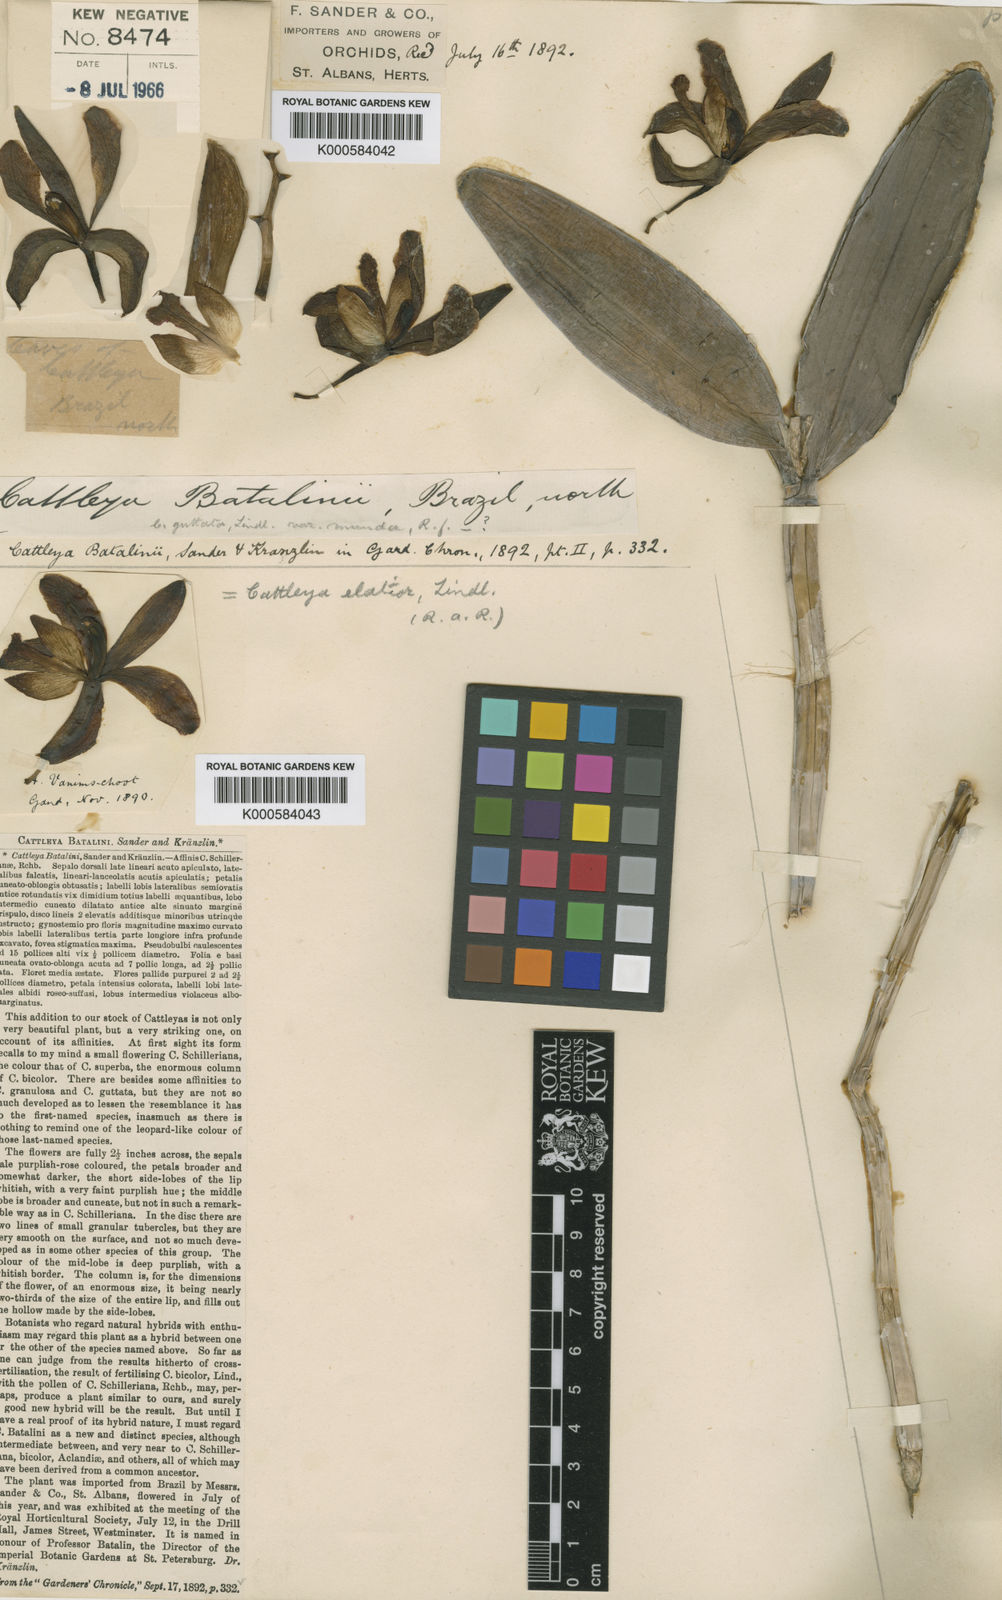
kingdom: Plantae
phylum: Tracheophyta
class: Liliopsida
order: Asparagales
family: Orchidaceae
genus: Cattleya
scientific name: Cattleya guttata
